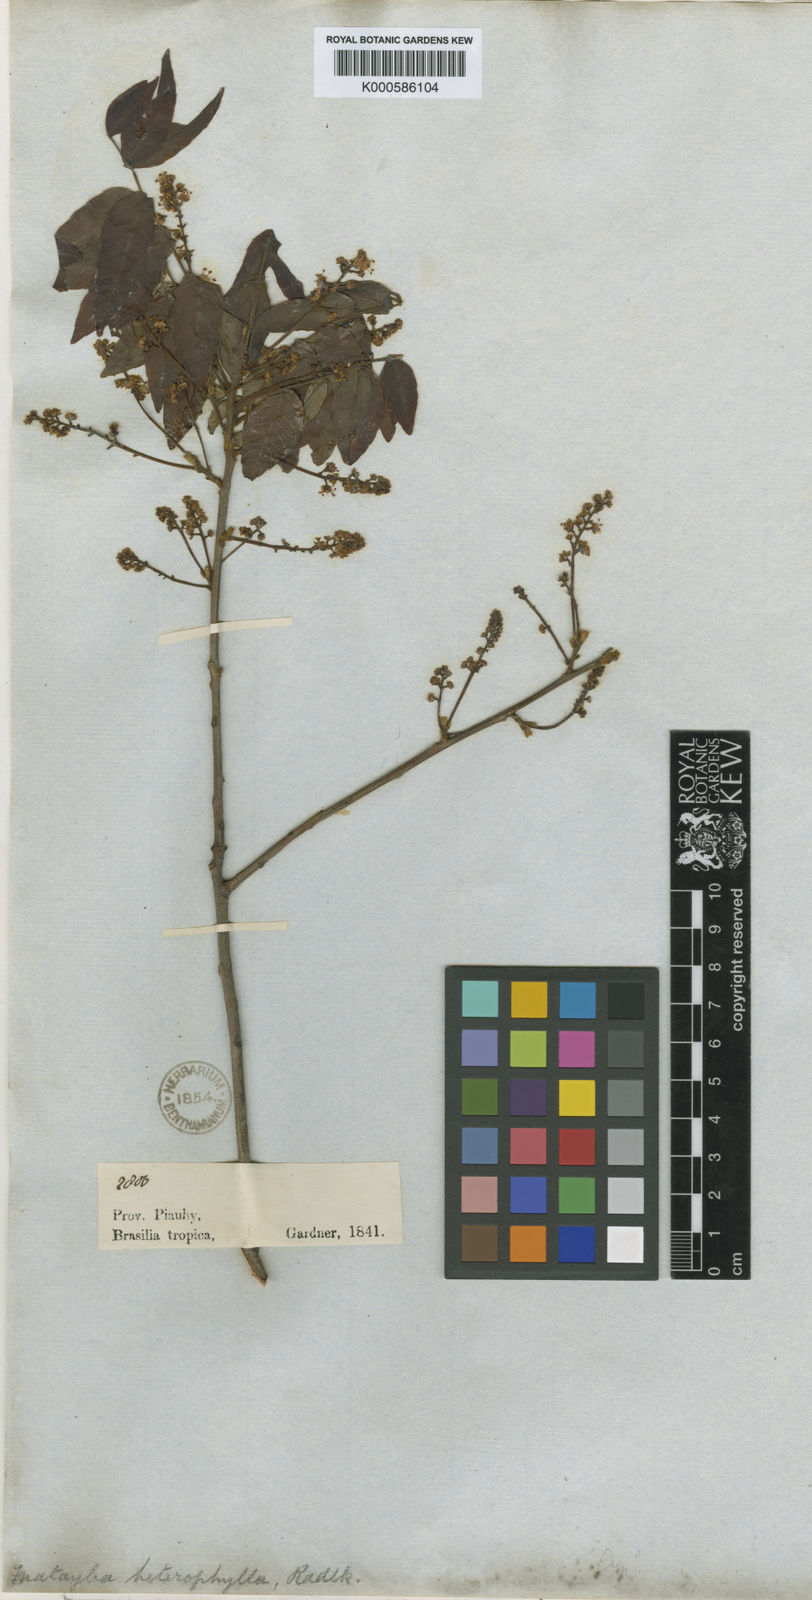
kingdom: Plantae
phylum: Tracheophyta
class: Magnoliopsida
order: Sapindales
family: Sapindaceae
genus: Matayba
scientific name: Matayba heterophylla
